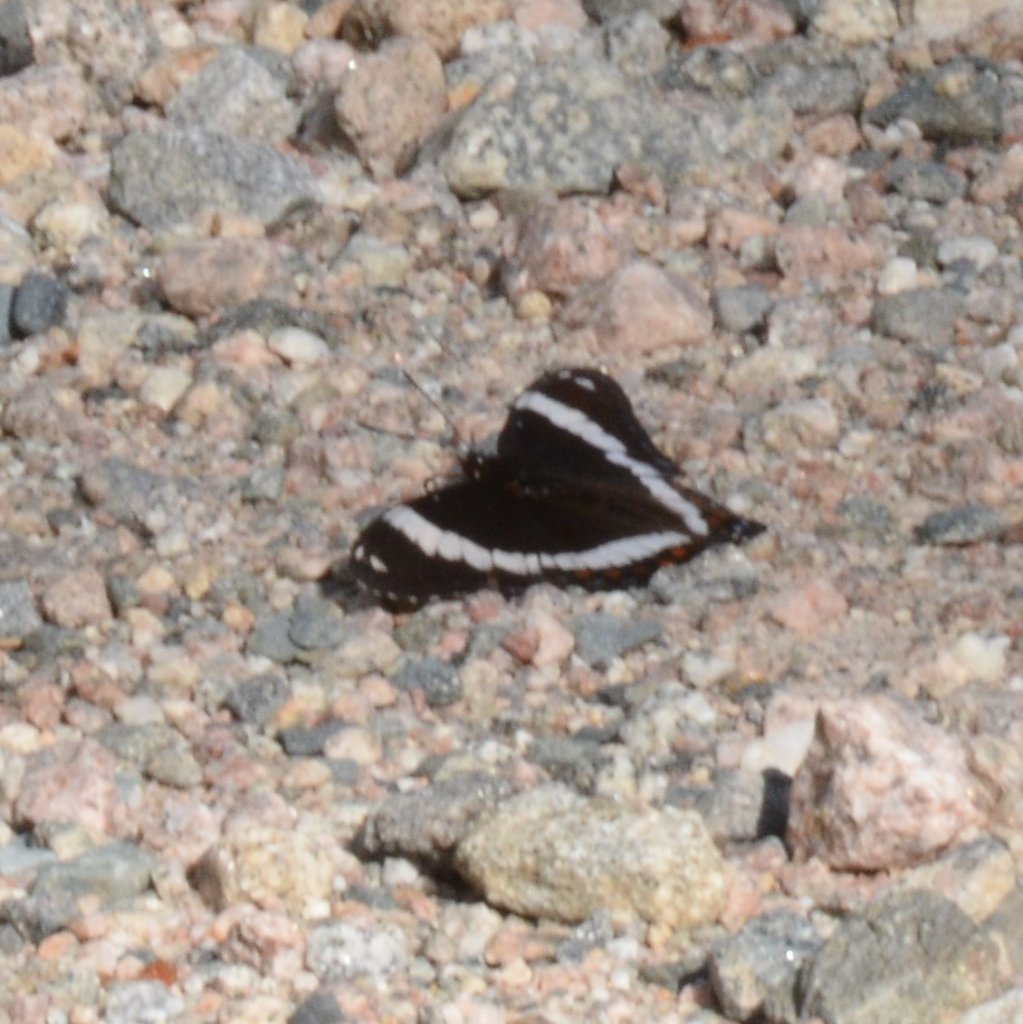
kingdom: Animalia
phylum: Arthropoda
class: Insecta
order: Lepidoptera
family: Nymphalidae
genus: Limenitis
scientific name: Limenitis arthemis
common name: Red-spotted Admiral
